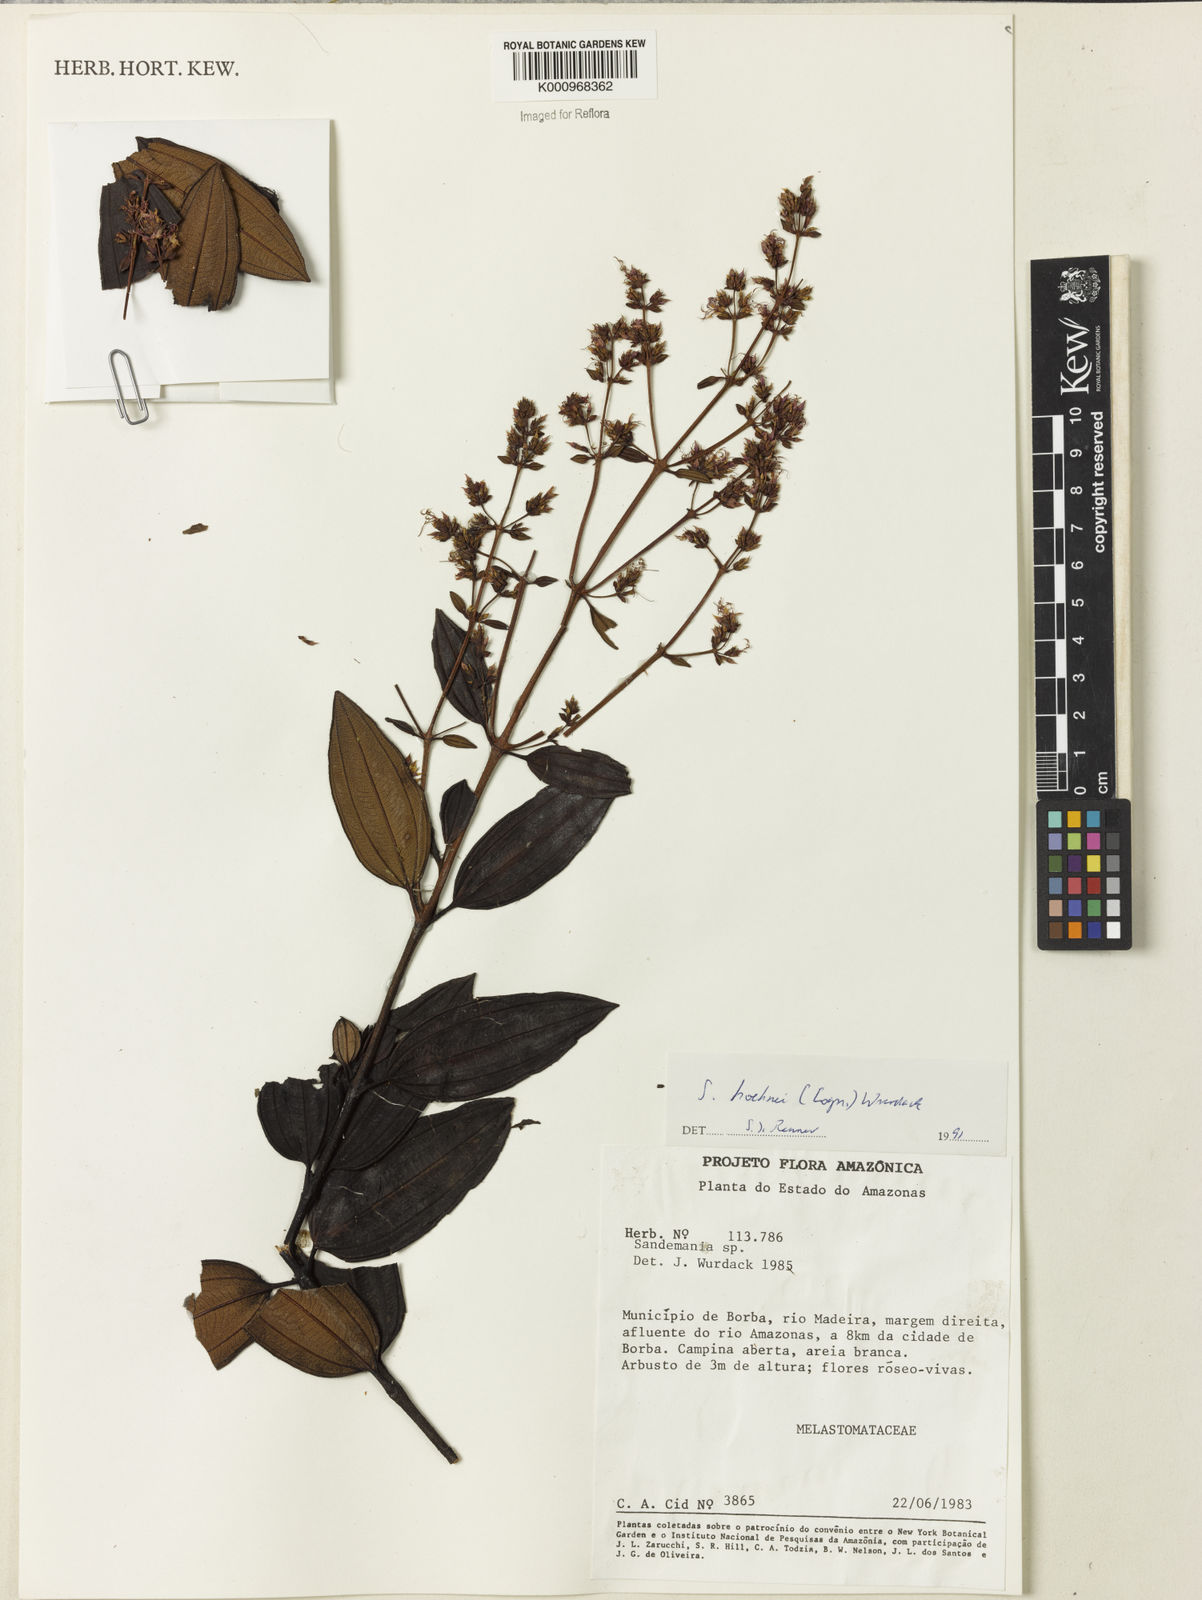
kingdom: Plantae
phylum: Tracheophyta
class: Magnoliopsida
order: Myrtales
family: Melastomataceae
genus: Sandemania
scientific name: Sandemania hoehnei
